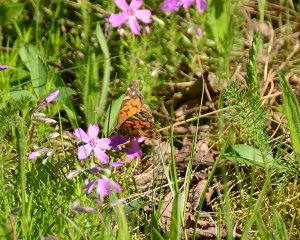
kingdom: Animalia
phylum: Arthropoda
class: Insecta
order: Lepidoptera
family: Nymphalidae
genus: Vanessa
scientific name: Vanessa virginiensis
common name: American Lady
